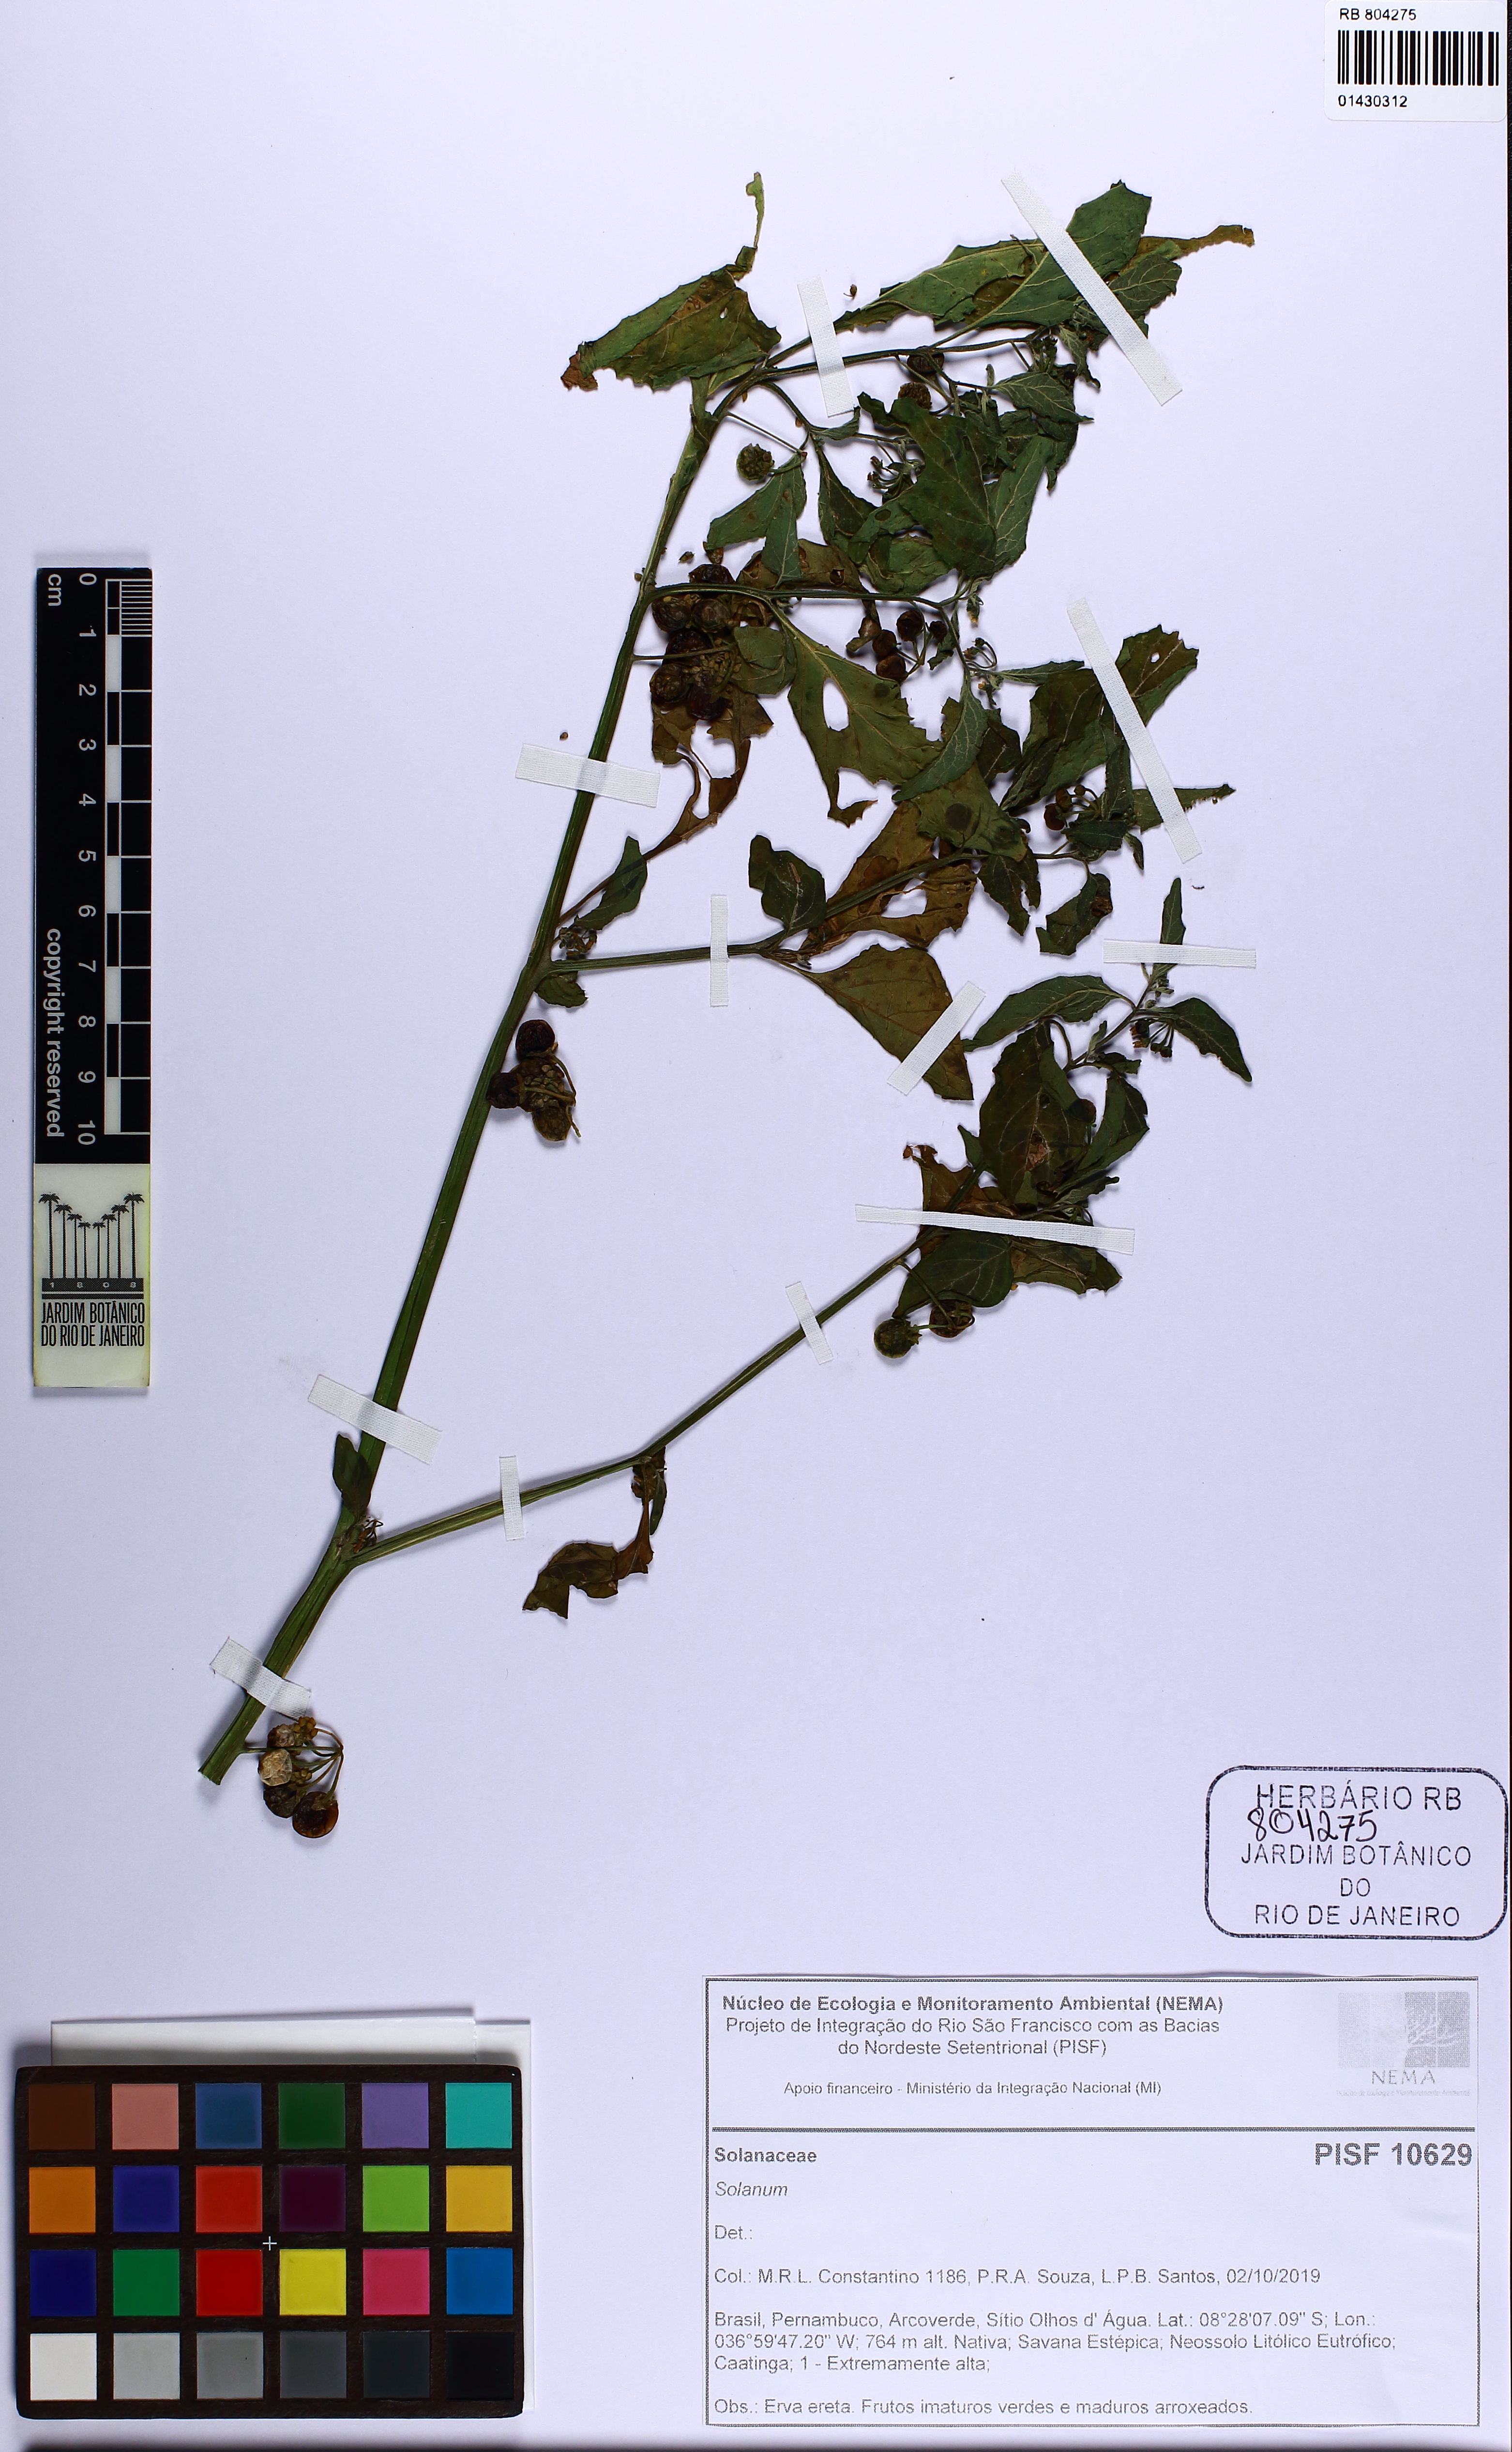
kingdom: Plantae
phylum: Tracheophyta
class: Magnoliopsida
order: Solanales
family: Solanaceae
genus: Solanum
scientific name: Solanum
